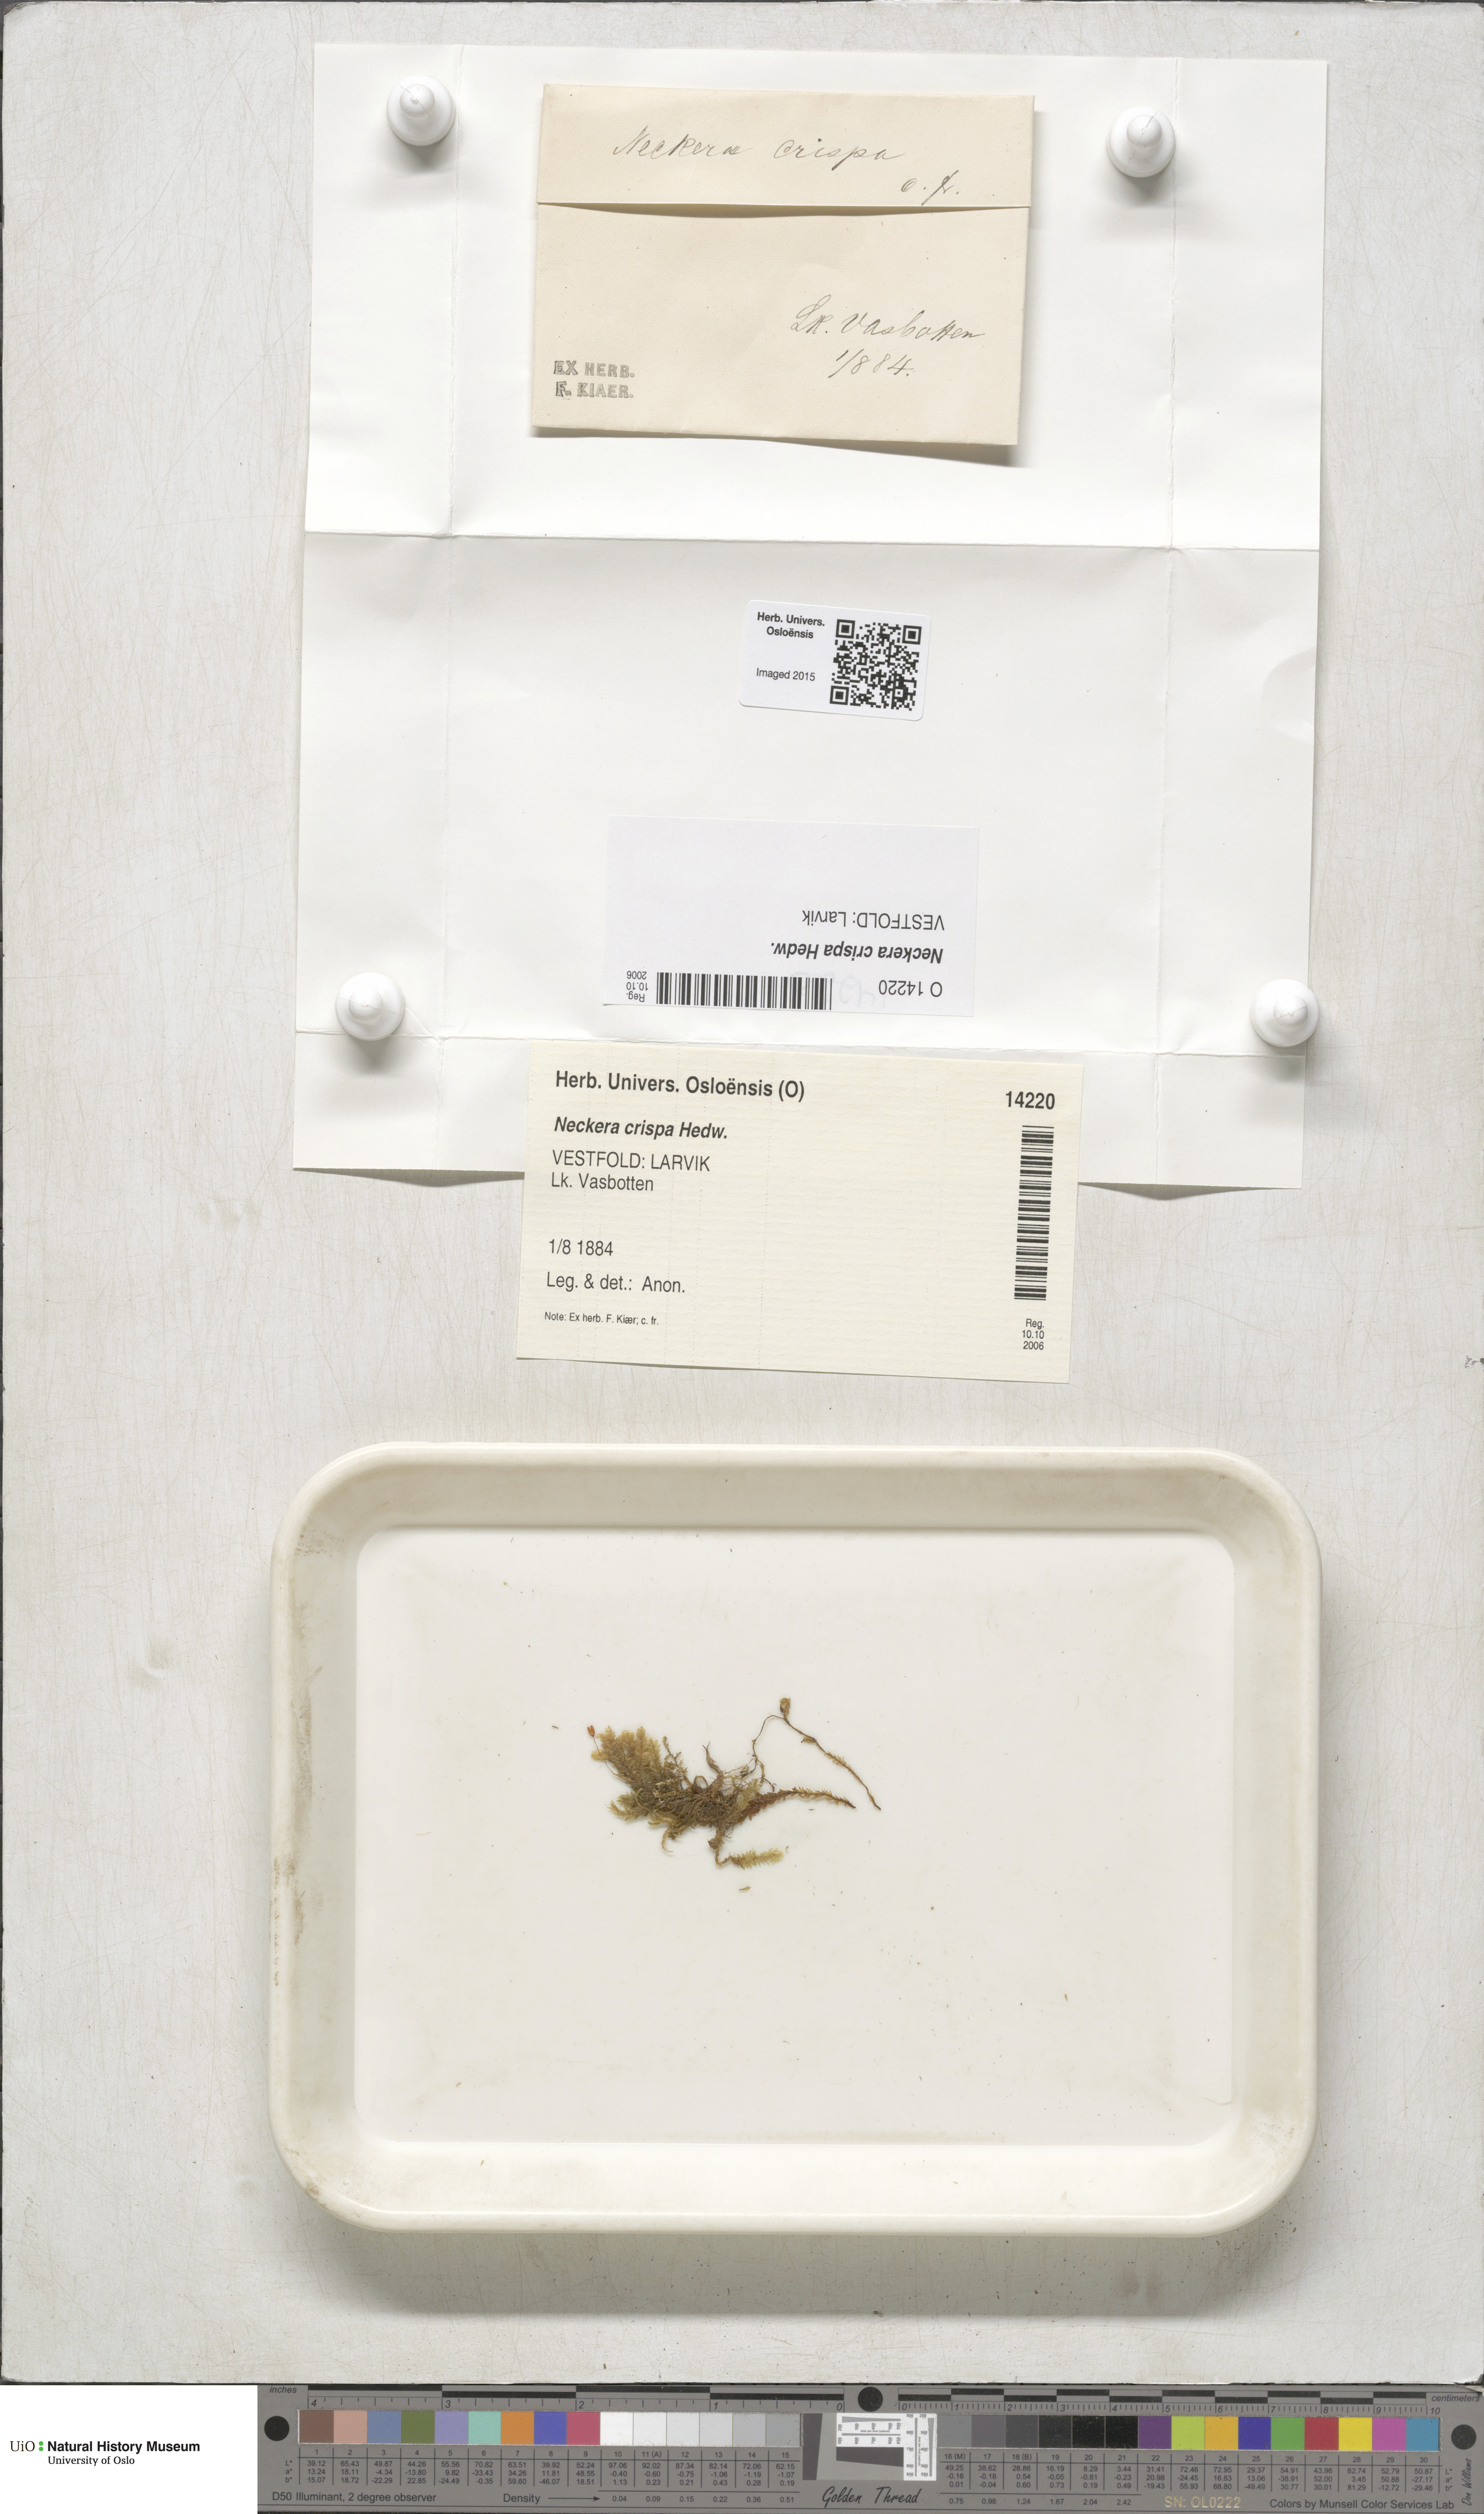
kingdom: Plantae
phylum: Bryophyta
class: Bryopsida
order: Hypnales
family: Neckeraceae
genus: Exsertotheca
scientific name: Exsertotheca crispa
